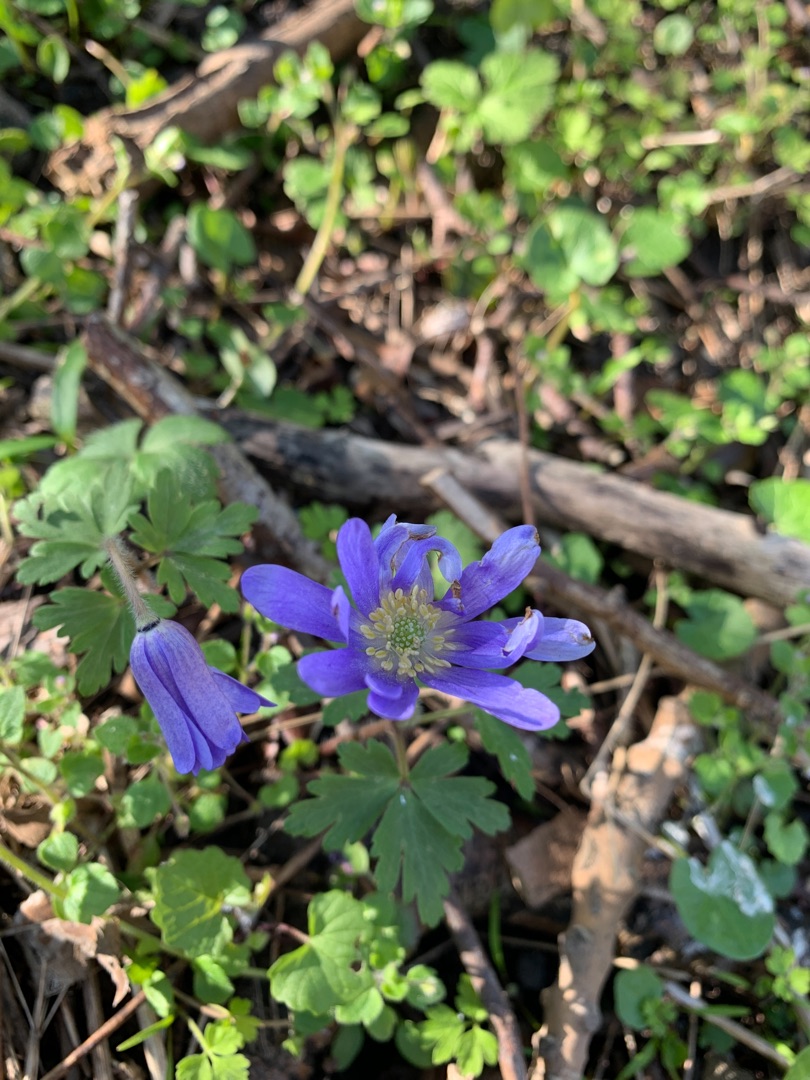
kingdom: Plantae
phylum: Tracheophyta
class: Magnoliopsida
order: Ranunculales
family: Ranunculaceae
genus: Anemone
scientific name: Anemone blanda
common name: Balkan-anemone
